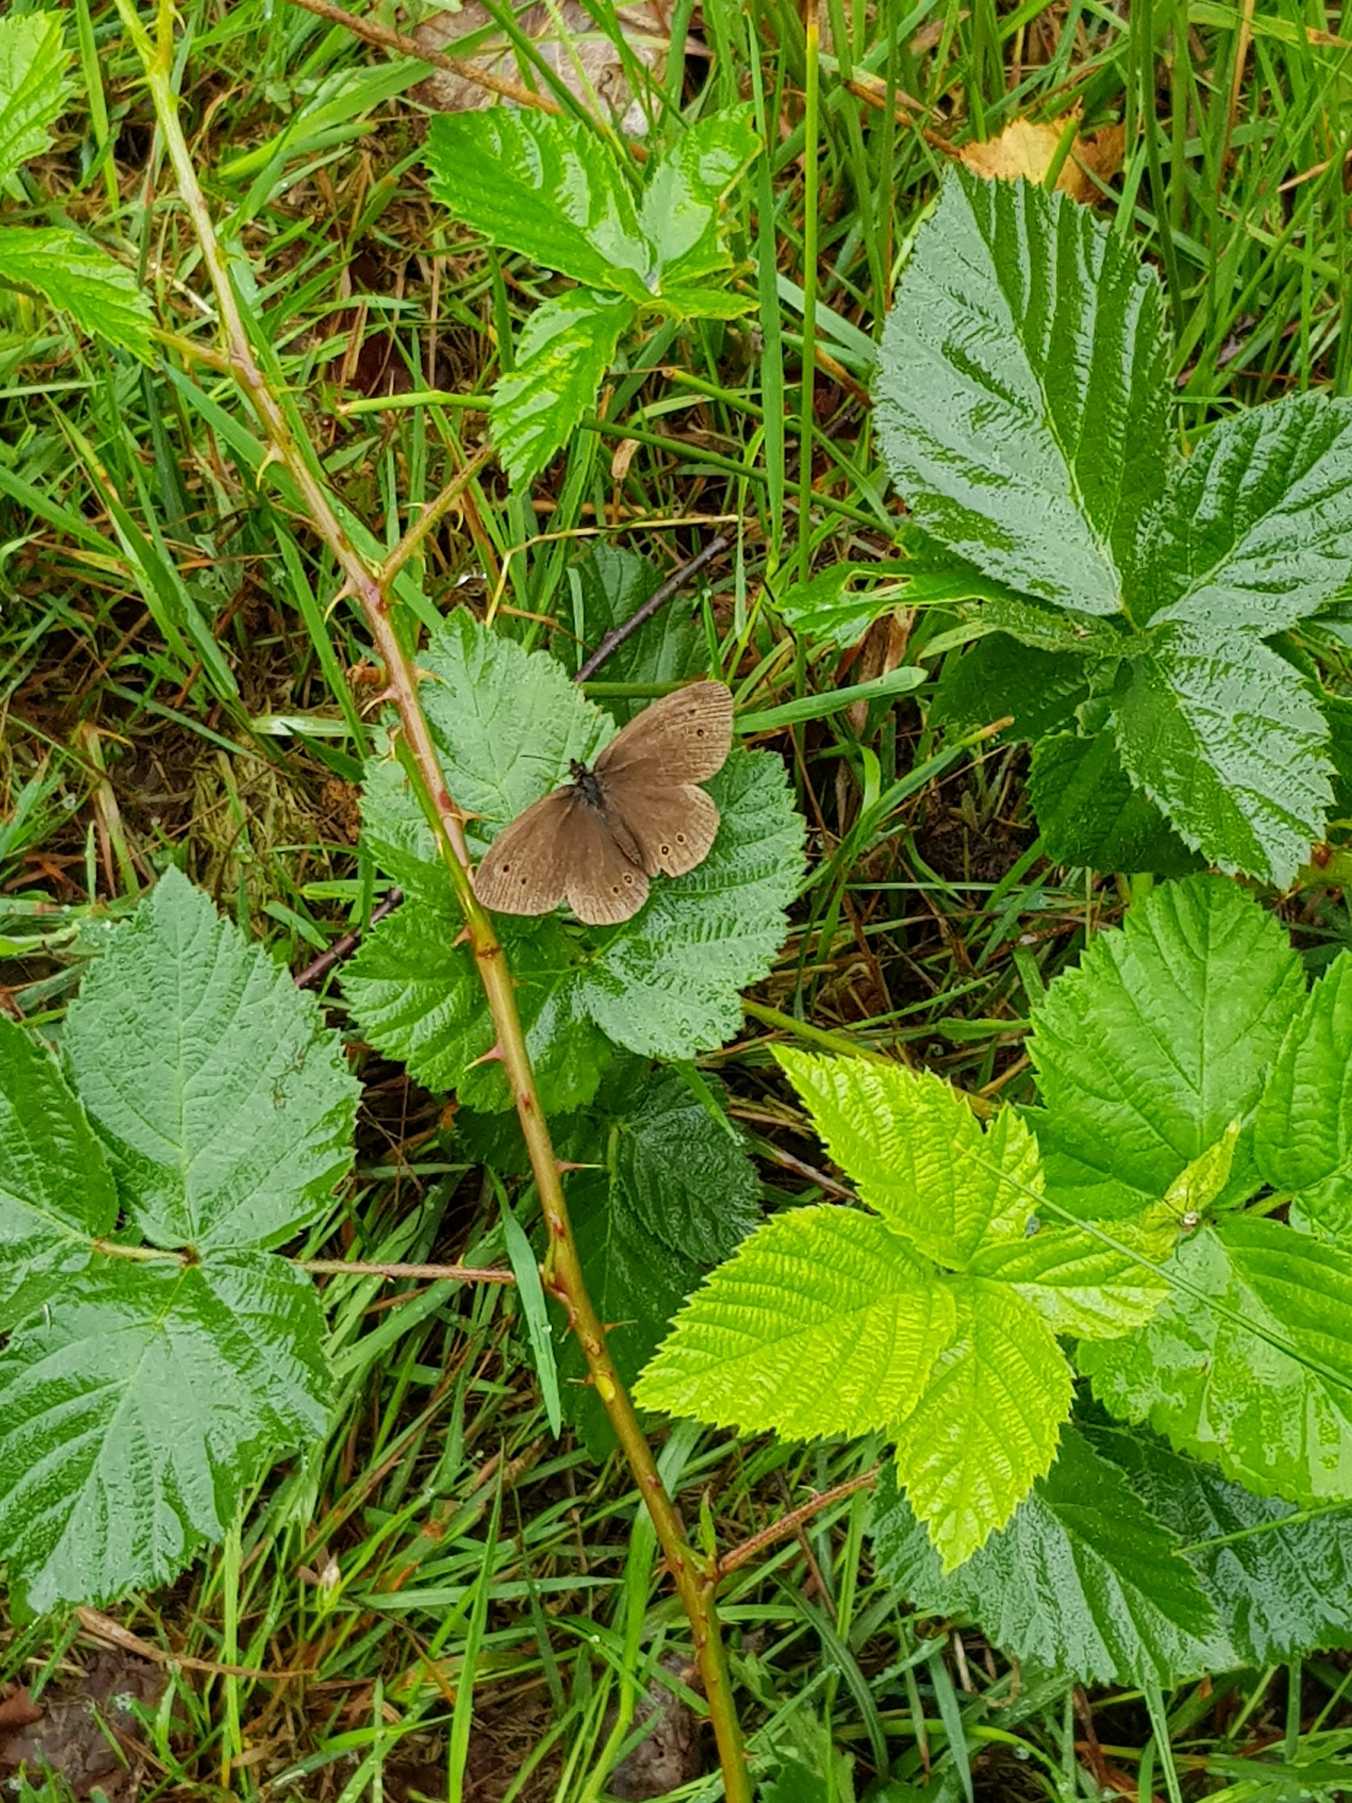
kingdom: Animalia
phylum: Arthropoda
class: Insecta
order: Lepidoptera
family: Nymphalidae
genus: Aphantopus
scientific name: Aphantopus hyperantus
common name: Engrandøje
